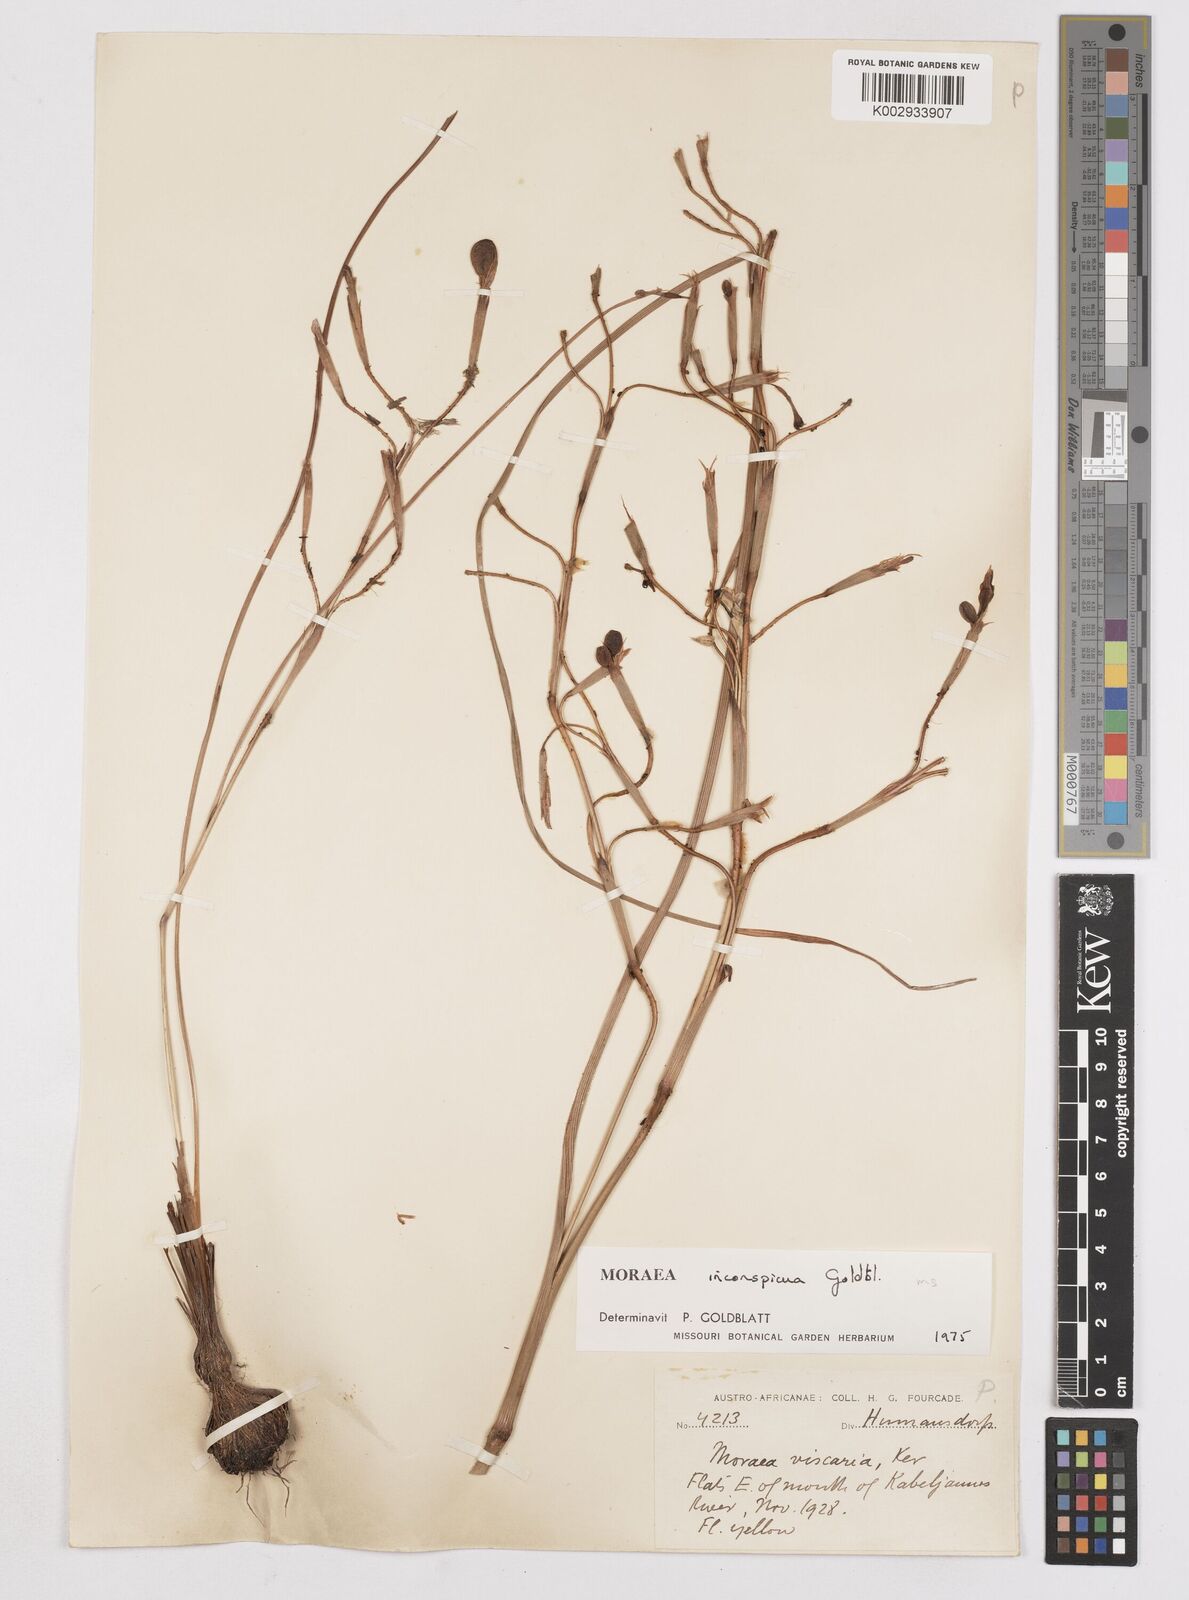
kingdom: Plantae
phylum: Tracheophyta
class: Liliopsida
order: Asparagales
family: Iridaceae
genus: Moraea
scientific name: Moraea inconspicua
